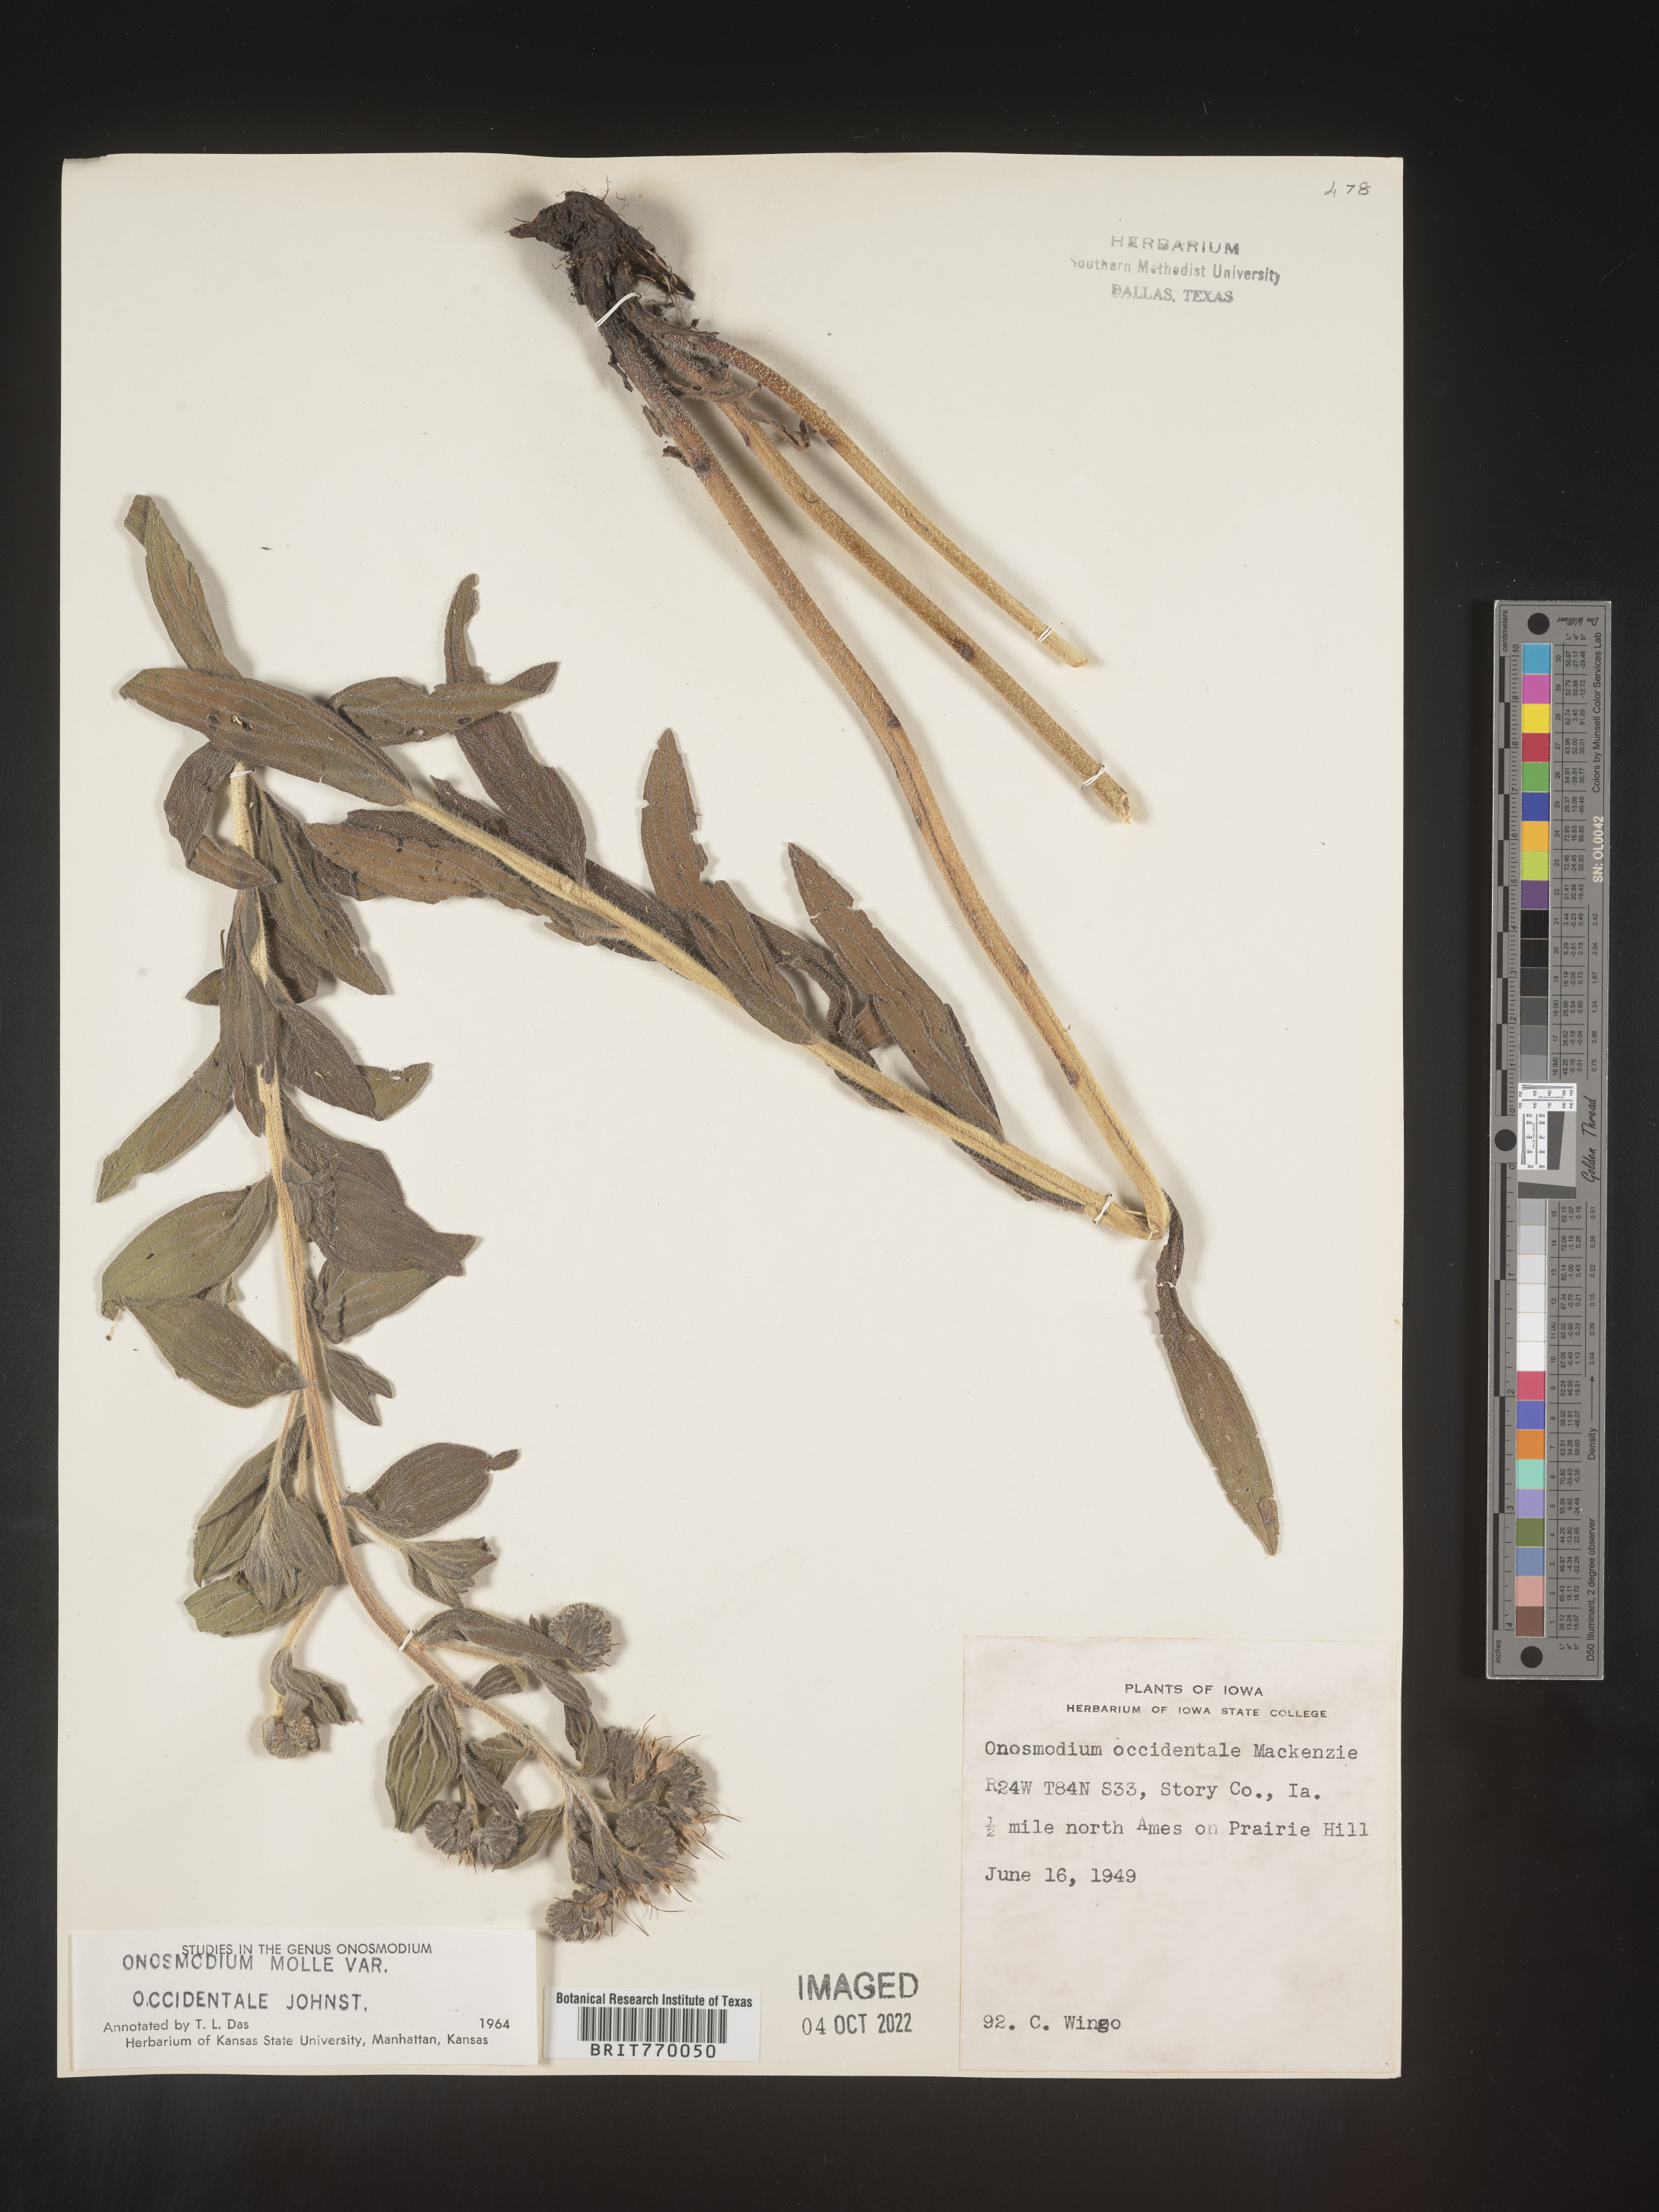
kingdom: Plantae
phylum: Tracheophyta
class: Magnoliopsida
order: Boraginales
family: Boraginaceae
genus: Lithospermum
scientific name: Lithospermum occidentale
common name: Western false gromwell
